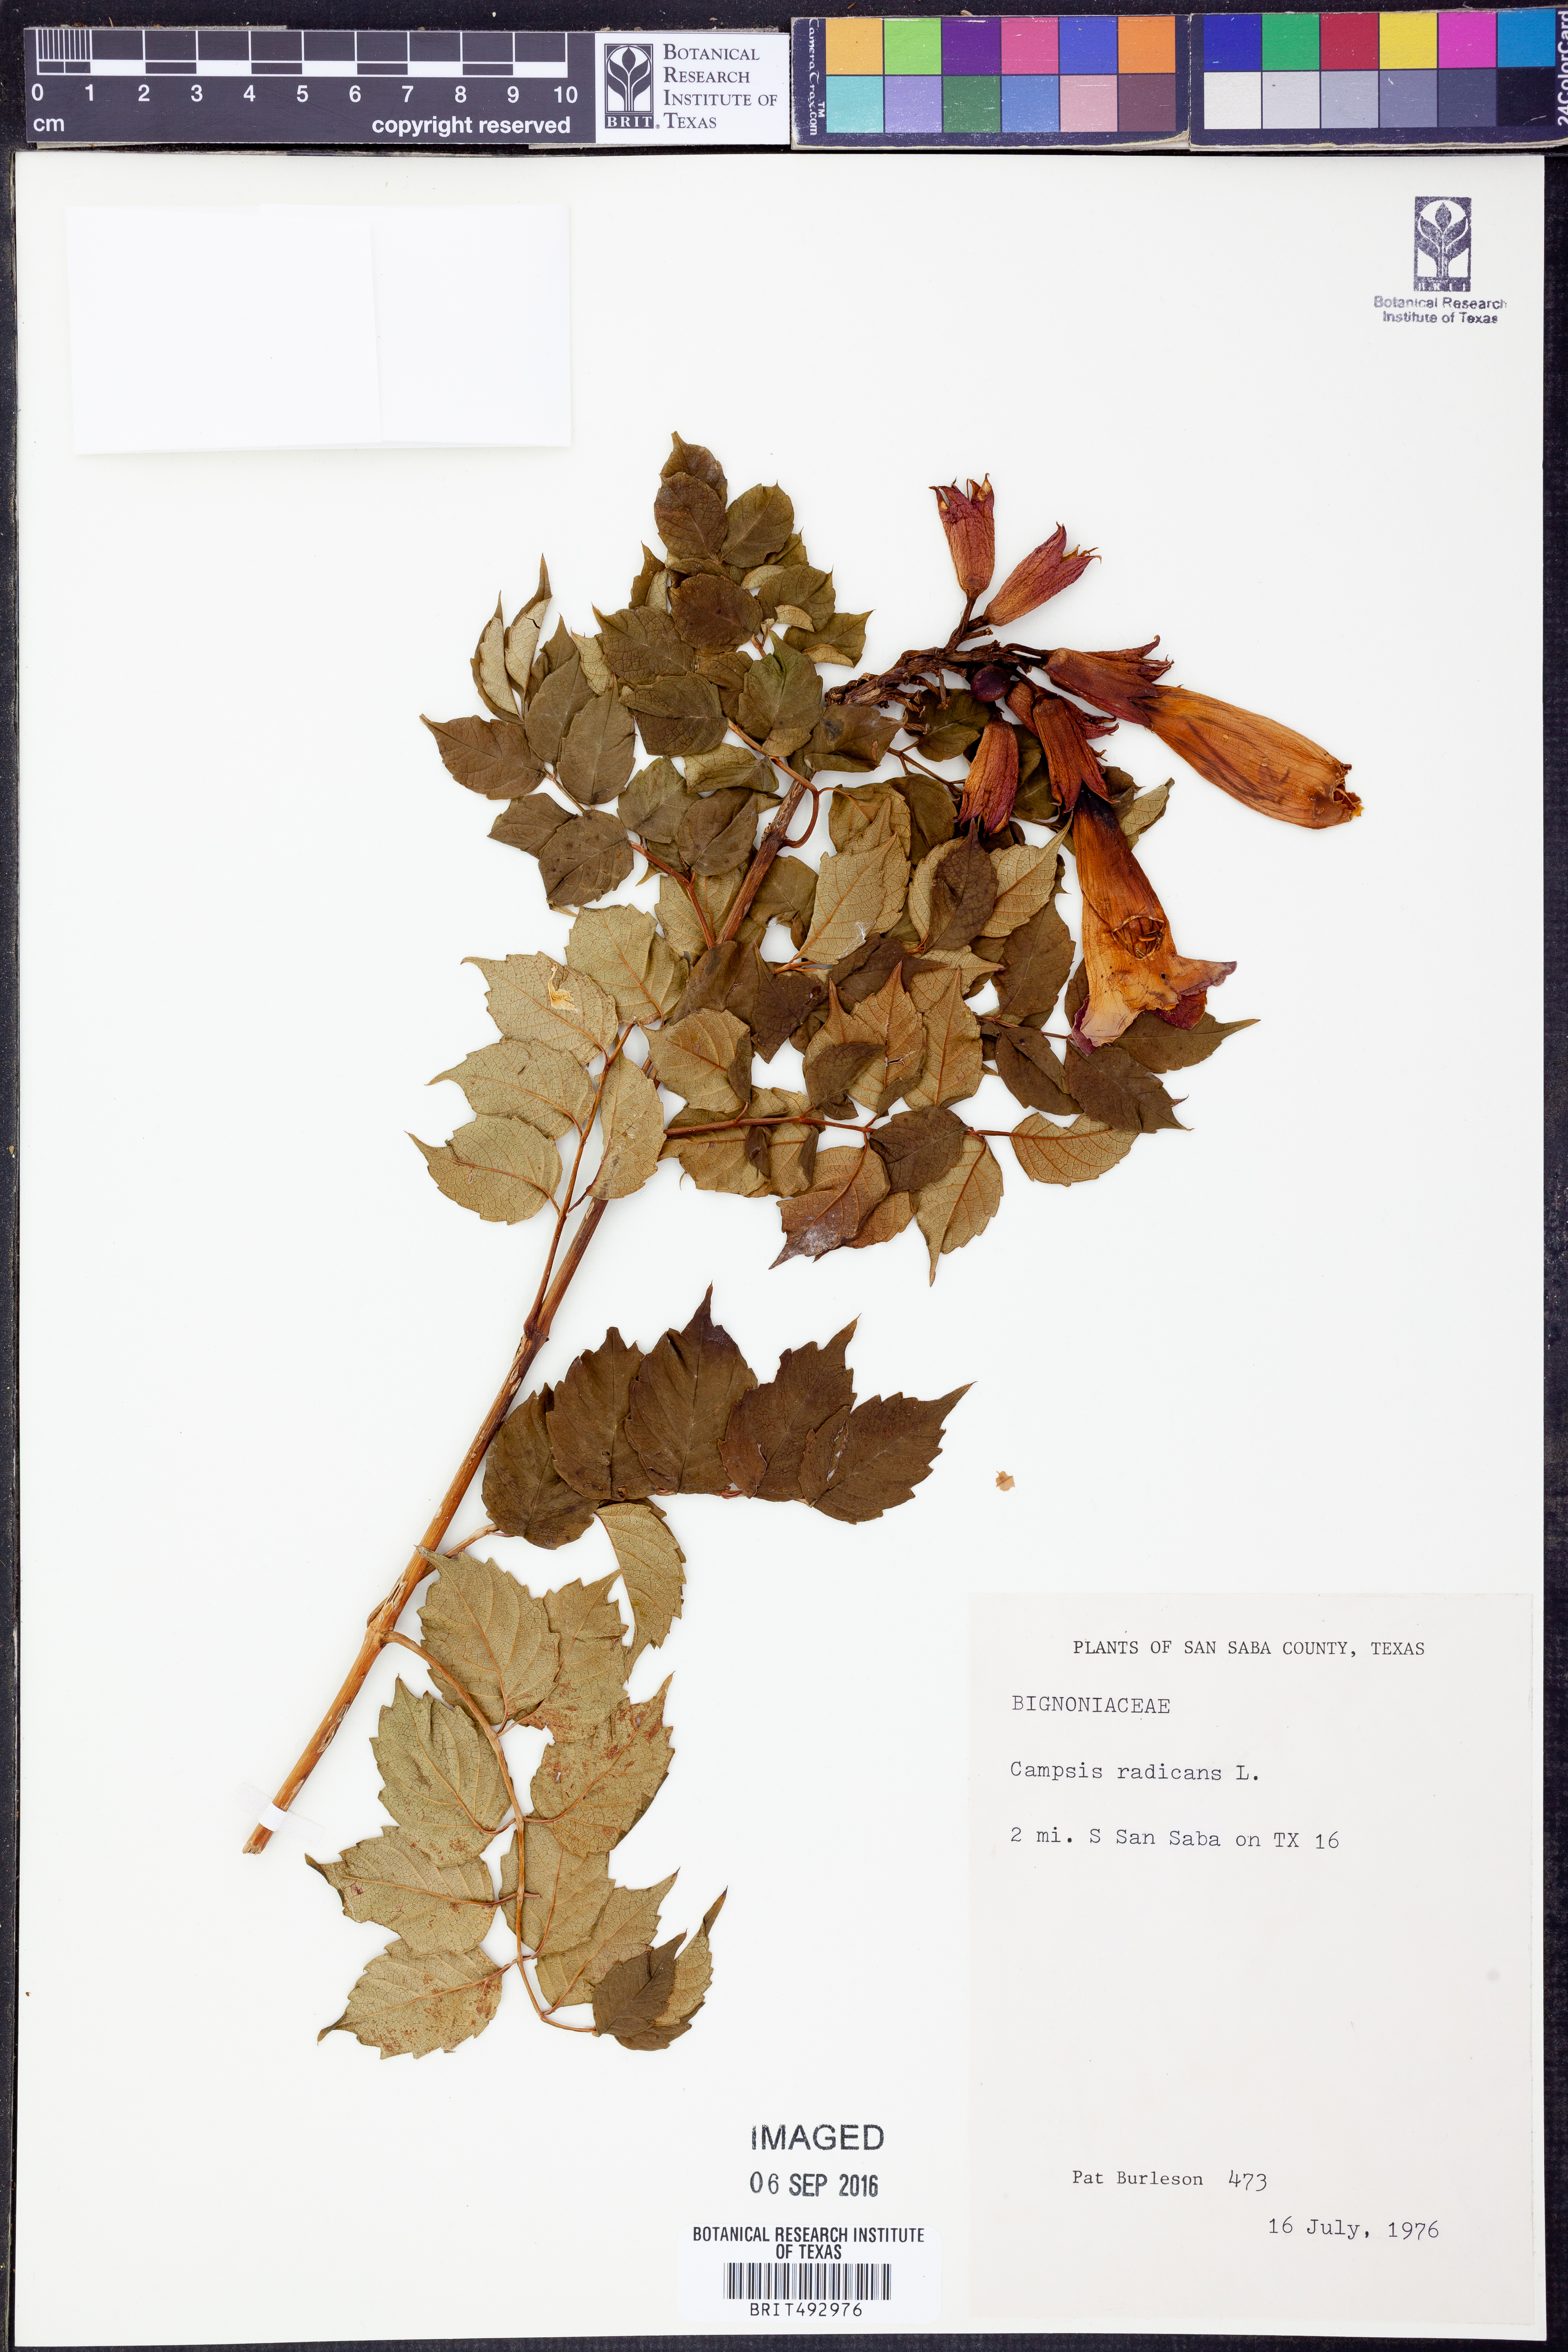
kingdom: Plantae
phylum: Tracheophyta
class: Magnoliopsida
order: Lamiales
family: Bignoniaceae
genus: Campsis
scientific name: Campsis radicans
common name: Trumpet-creeper
